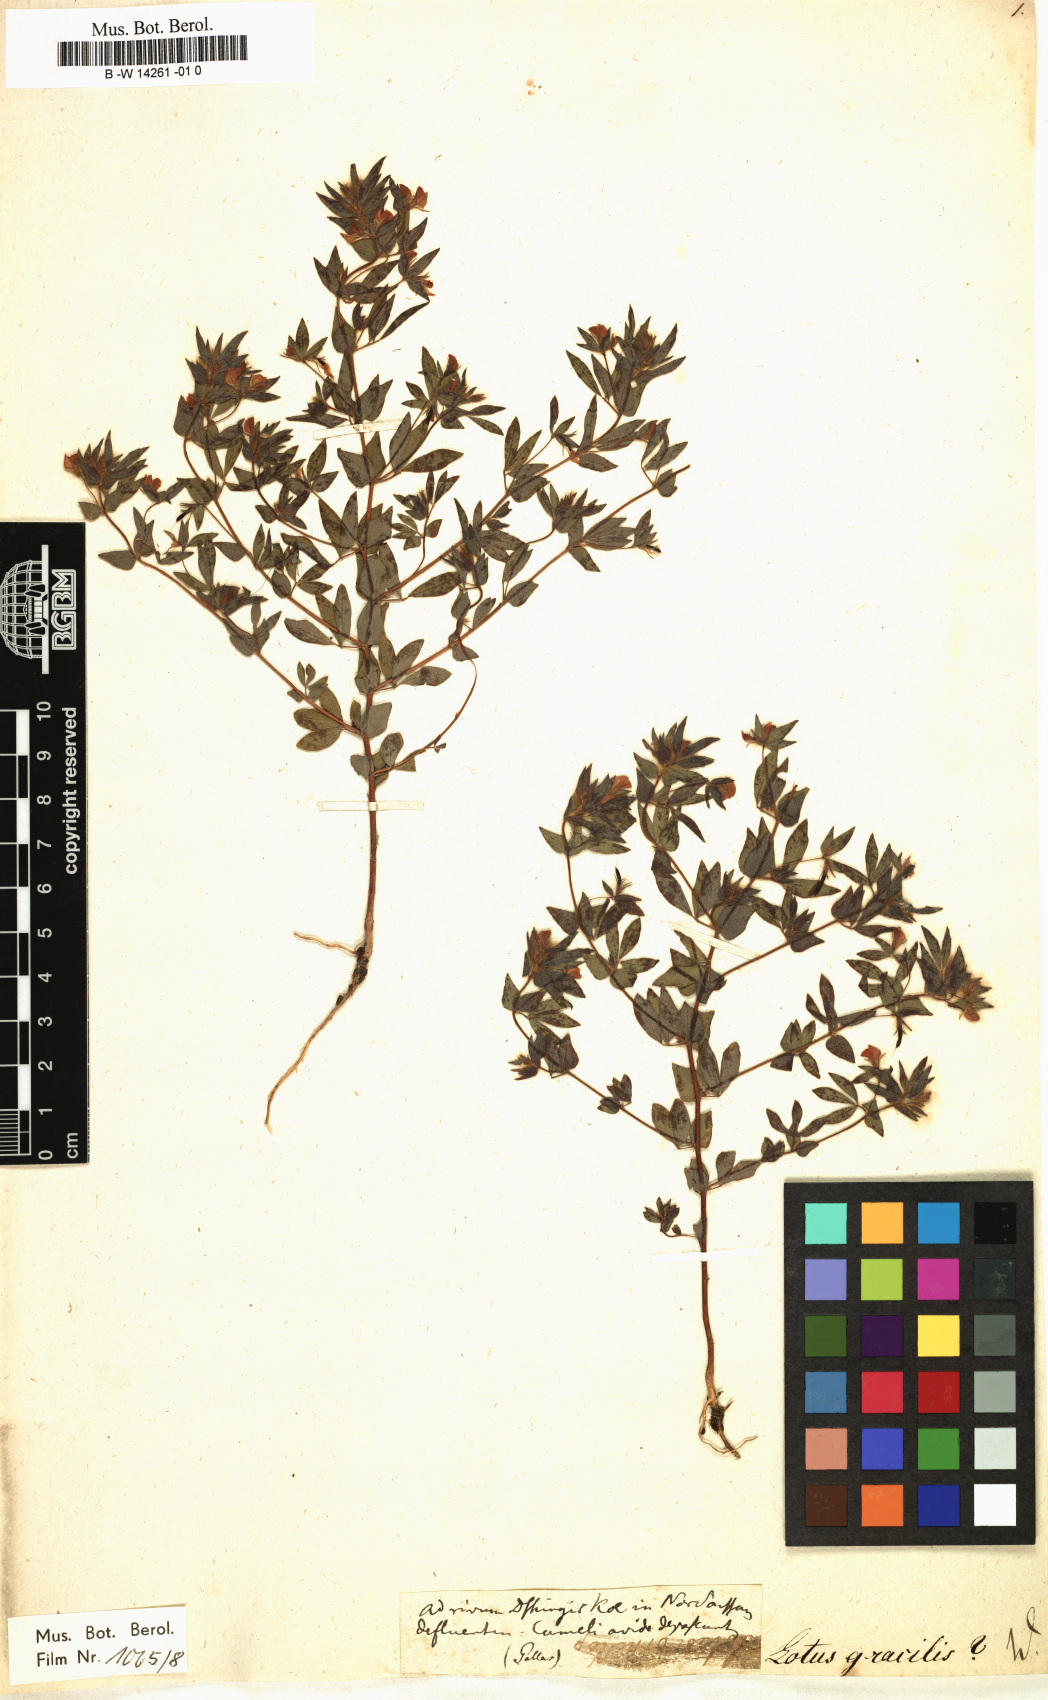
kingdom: Plantae
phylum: Tracheophyta
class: Magnoliopsida
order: Fabales
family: Fabaceae
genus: Lotus
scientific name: Lotus
